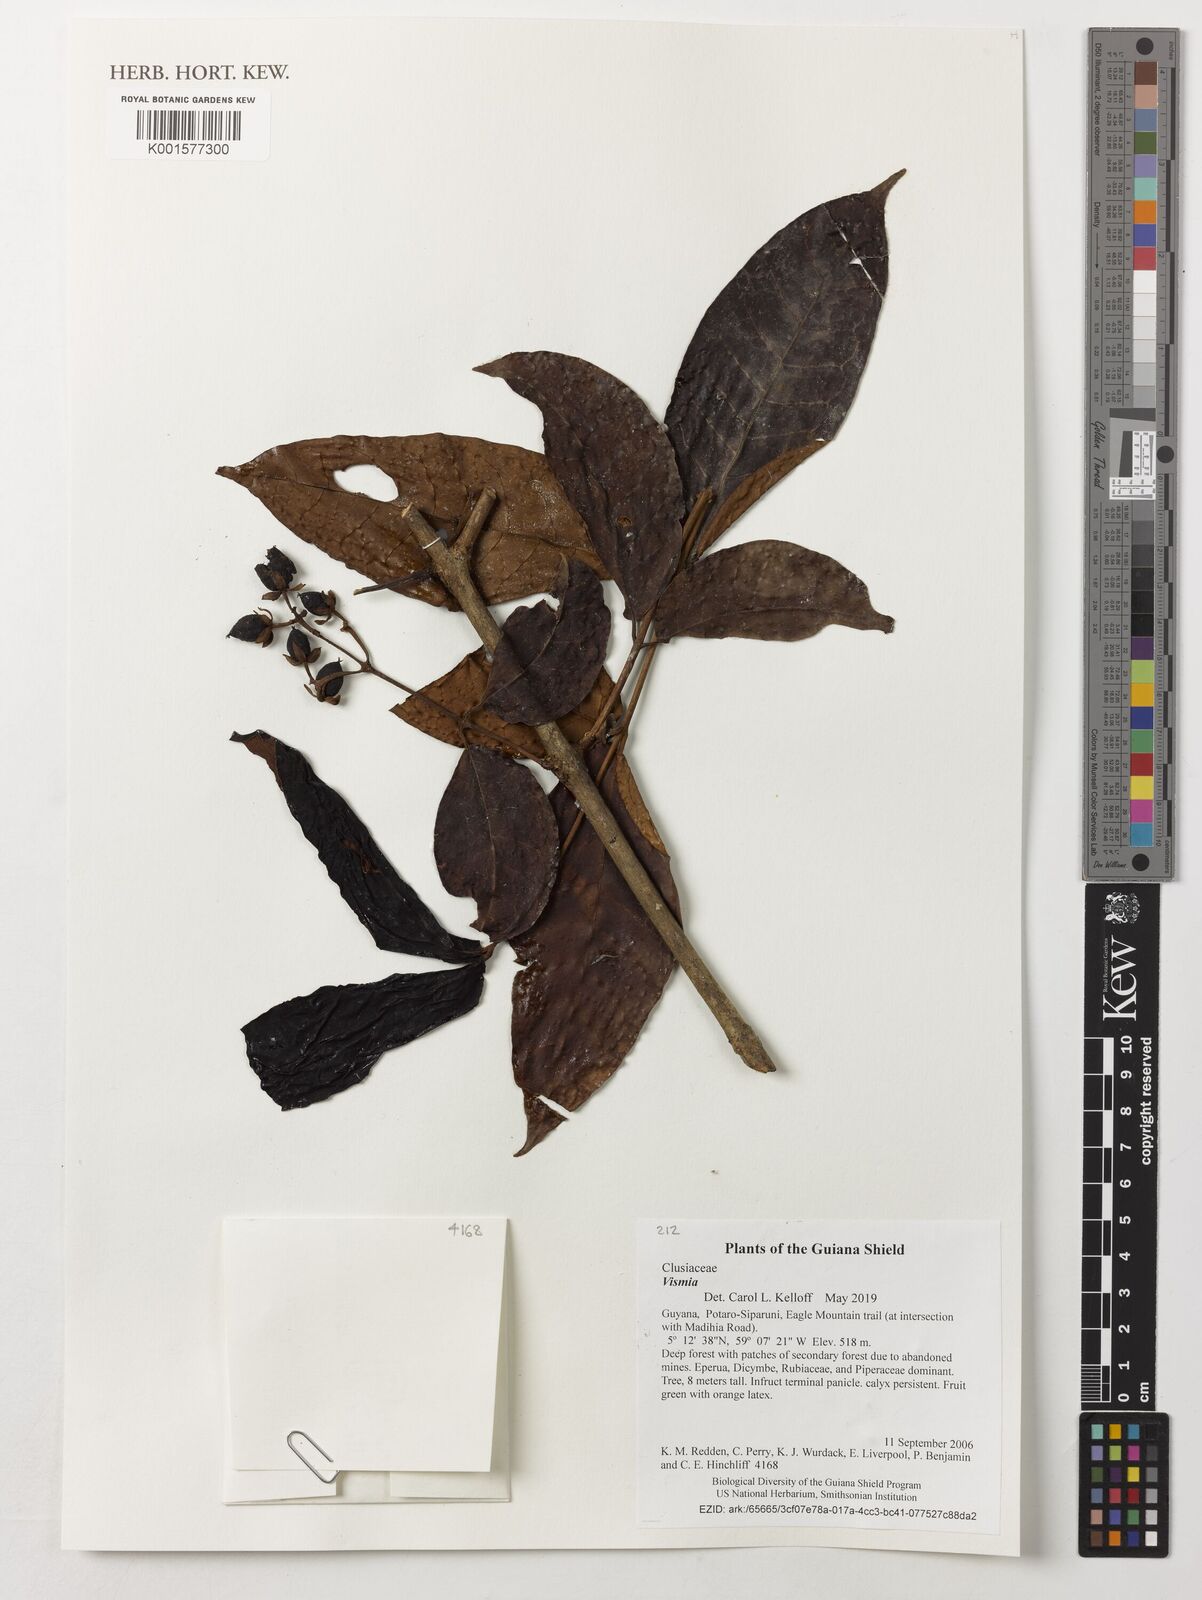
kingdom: Plantae
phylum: Tracheophyta
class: Magnoliopsida
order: Malpighiales
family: Hypericaceae
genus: Vismia
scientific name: Vismia
